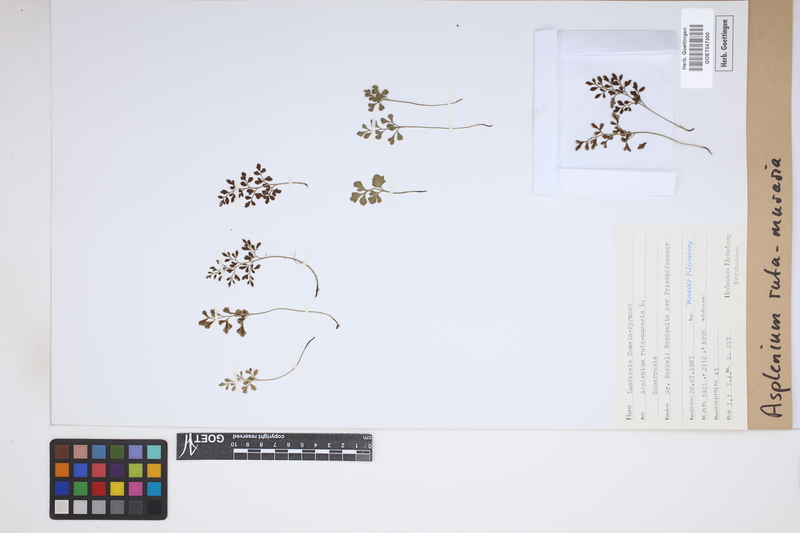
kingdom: Plantae
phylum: Tracheophyta
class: Polypodiopsida
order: Polypodiales
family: Aspleniaceae
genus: Asplenium
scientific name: Asplenium ruta-muraria
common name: Wall-rue
